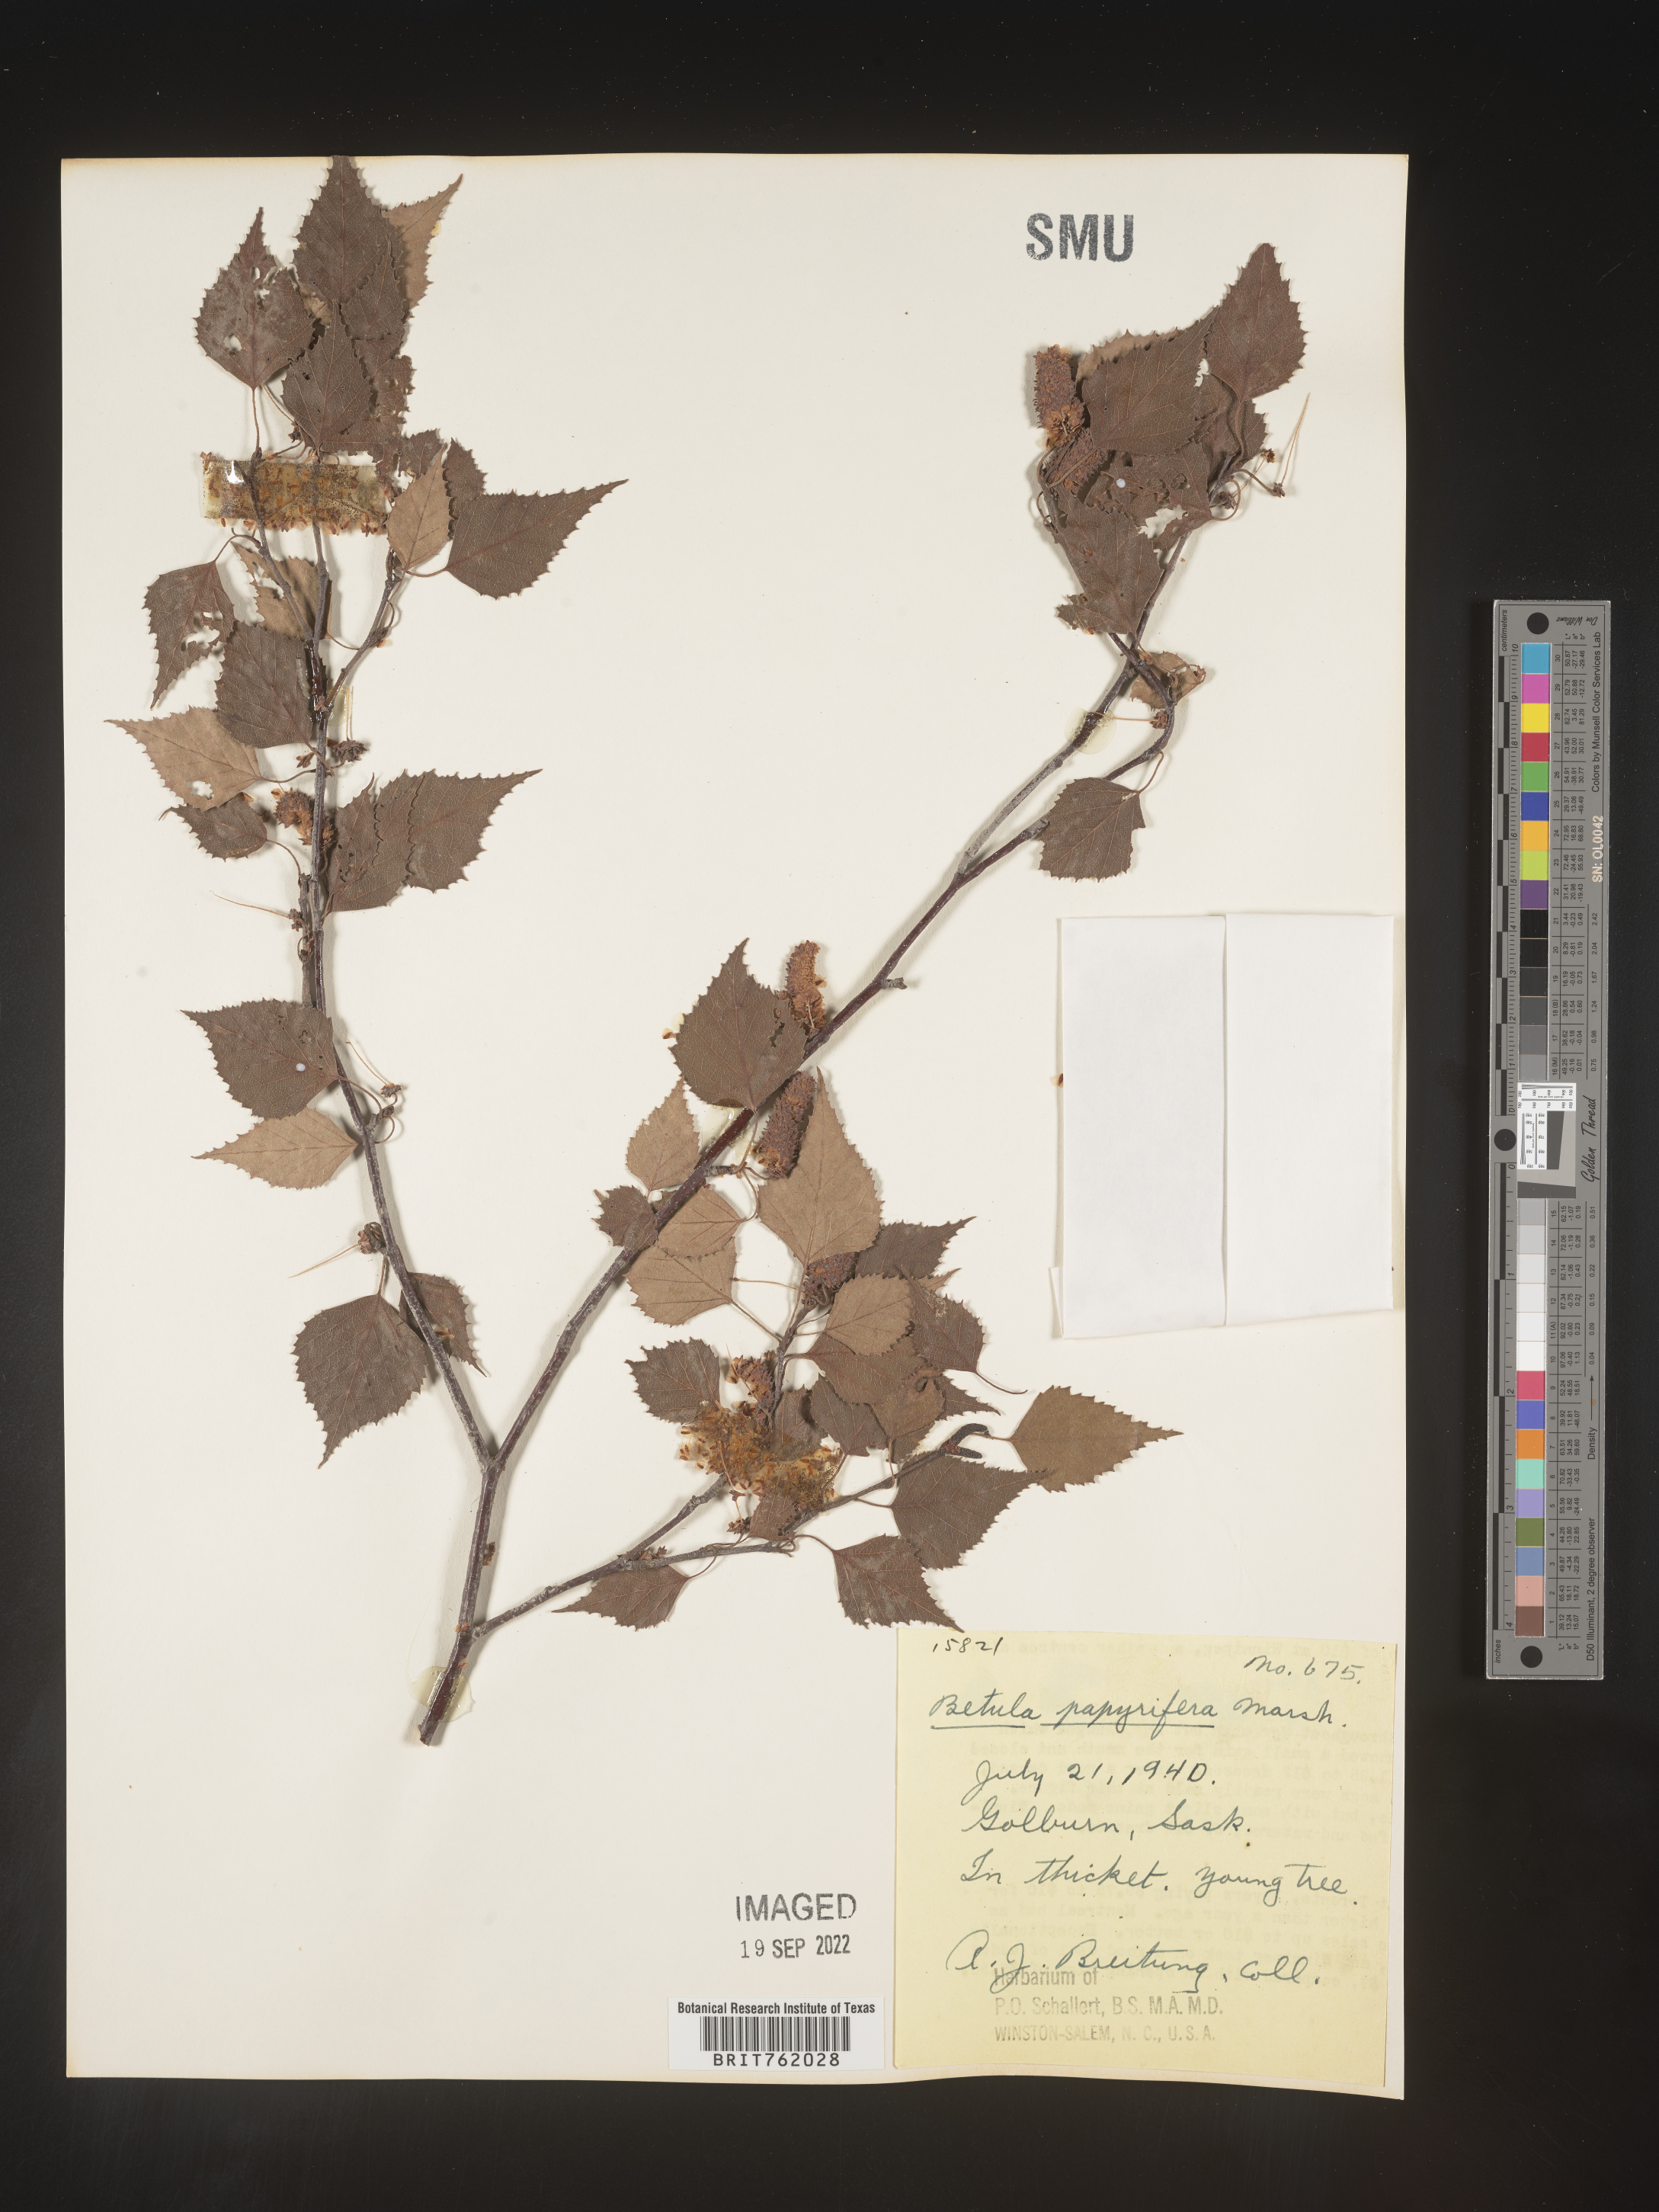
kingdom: Plantae
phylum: Tracheophyta
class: Magnoliopsida
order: Fagales
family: Betulaceae
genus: Betula
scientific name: Betula papyrifera
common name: Paper birch
